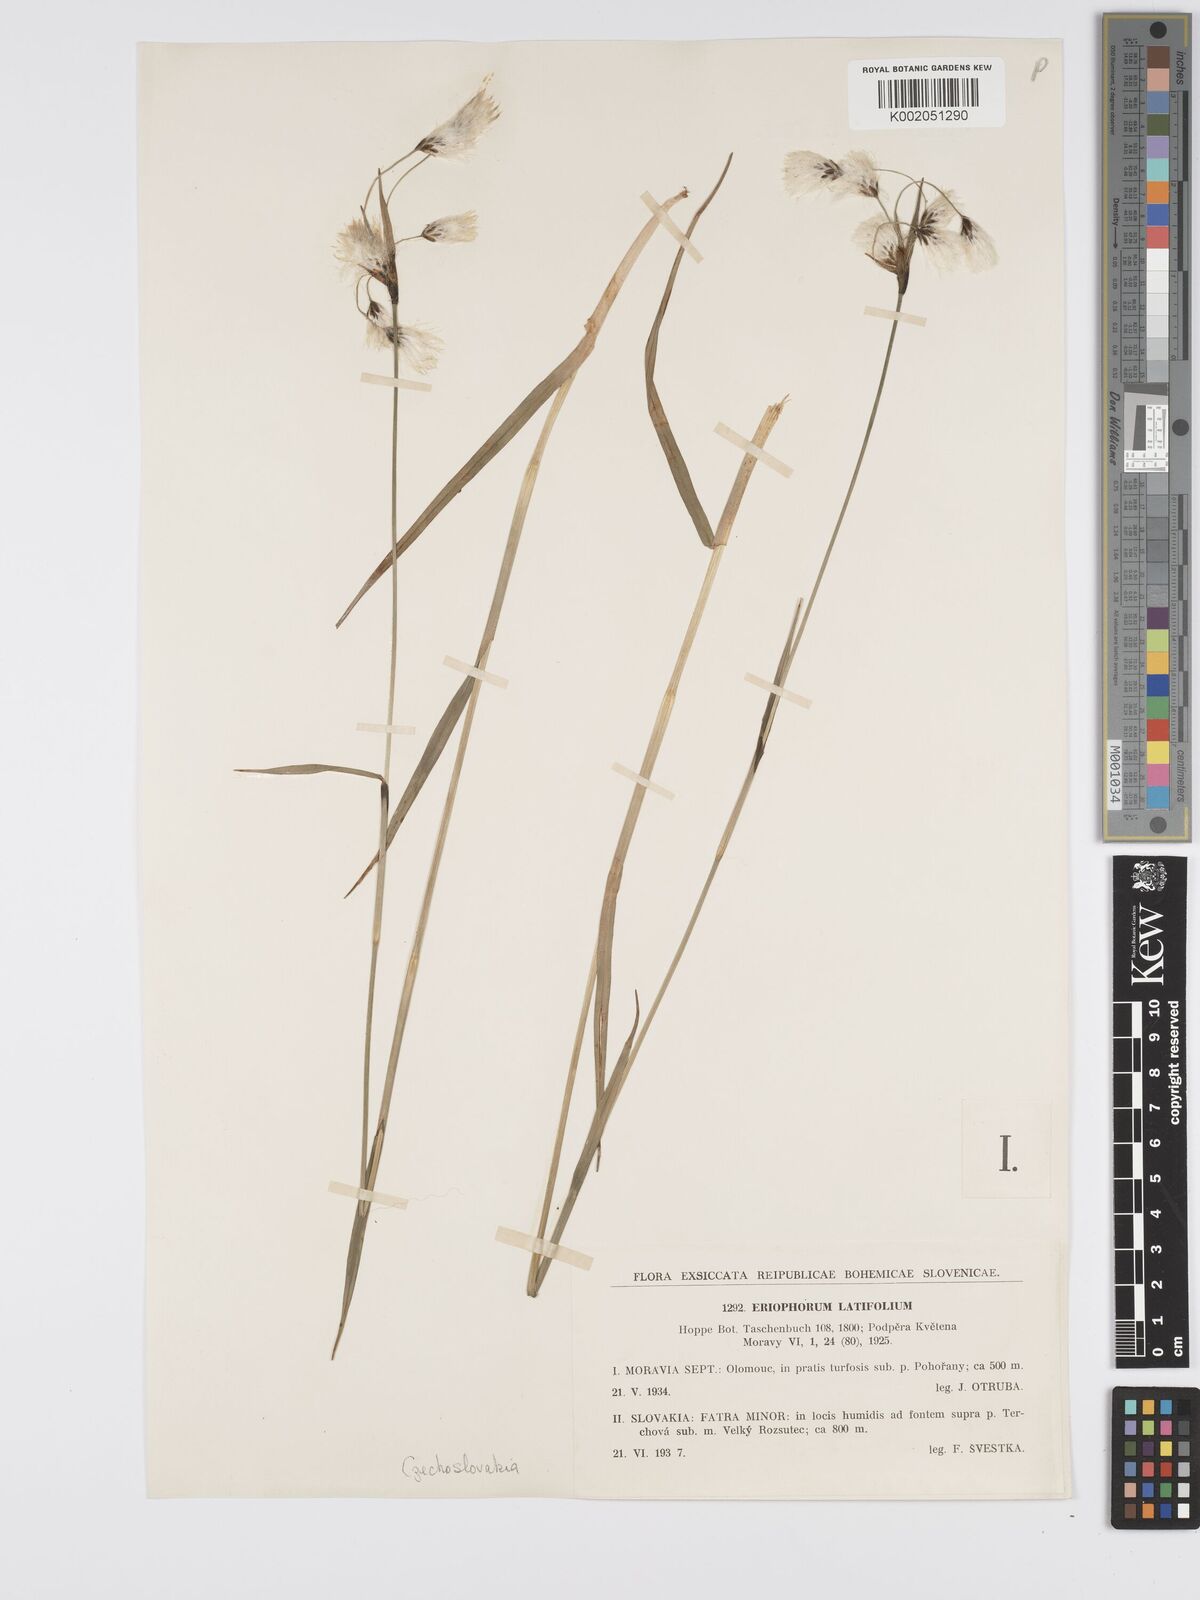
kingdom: Plantae
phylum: Tracheophyta
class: Liliopsida
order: Poales
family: Cyperaceae
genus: Eriophorum
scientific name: Eriophorum latifolium
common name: Broad-leaved cottongrass
